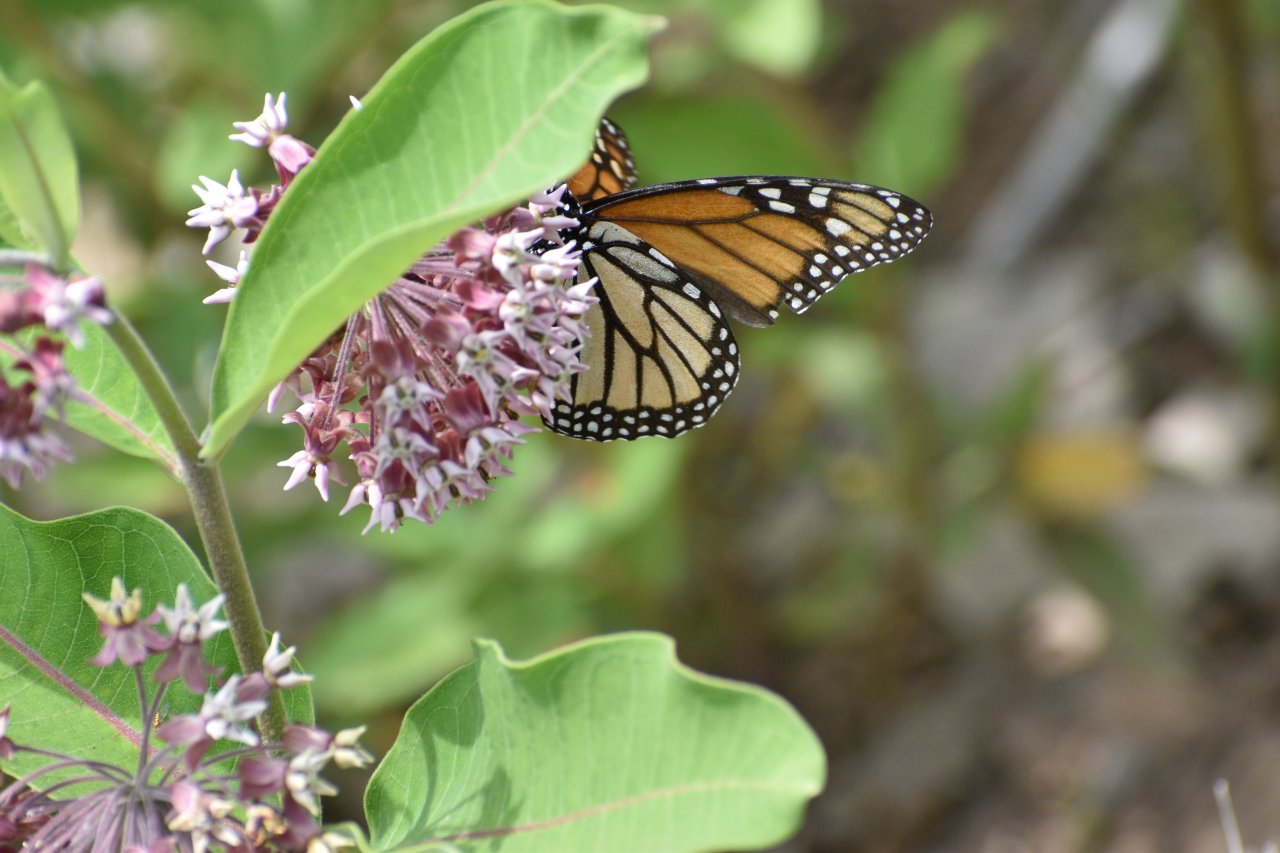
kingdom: Animalia
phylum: Arthropoda
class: Insecta
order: Lepidoptera
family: Nymphalidae
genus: Danaus
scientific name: Danaus plexippus
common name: Monarch
